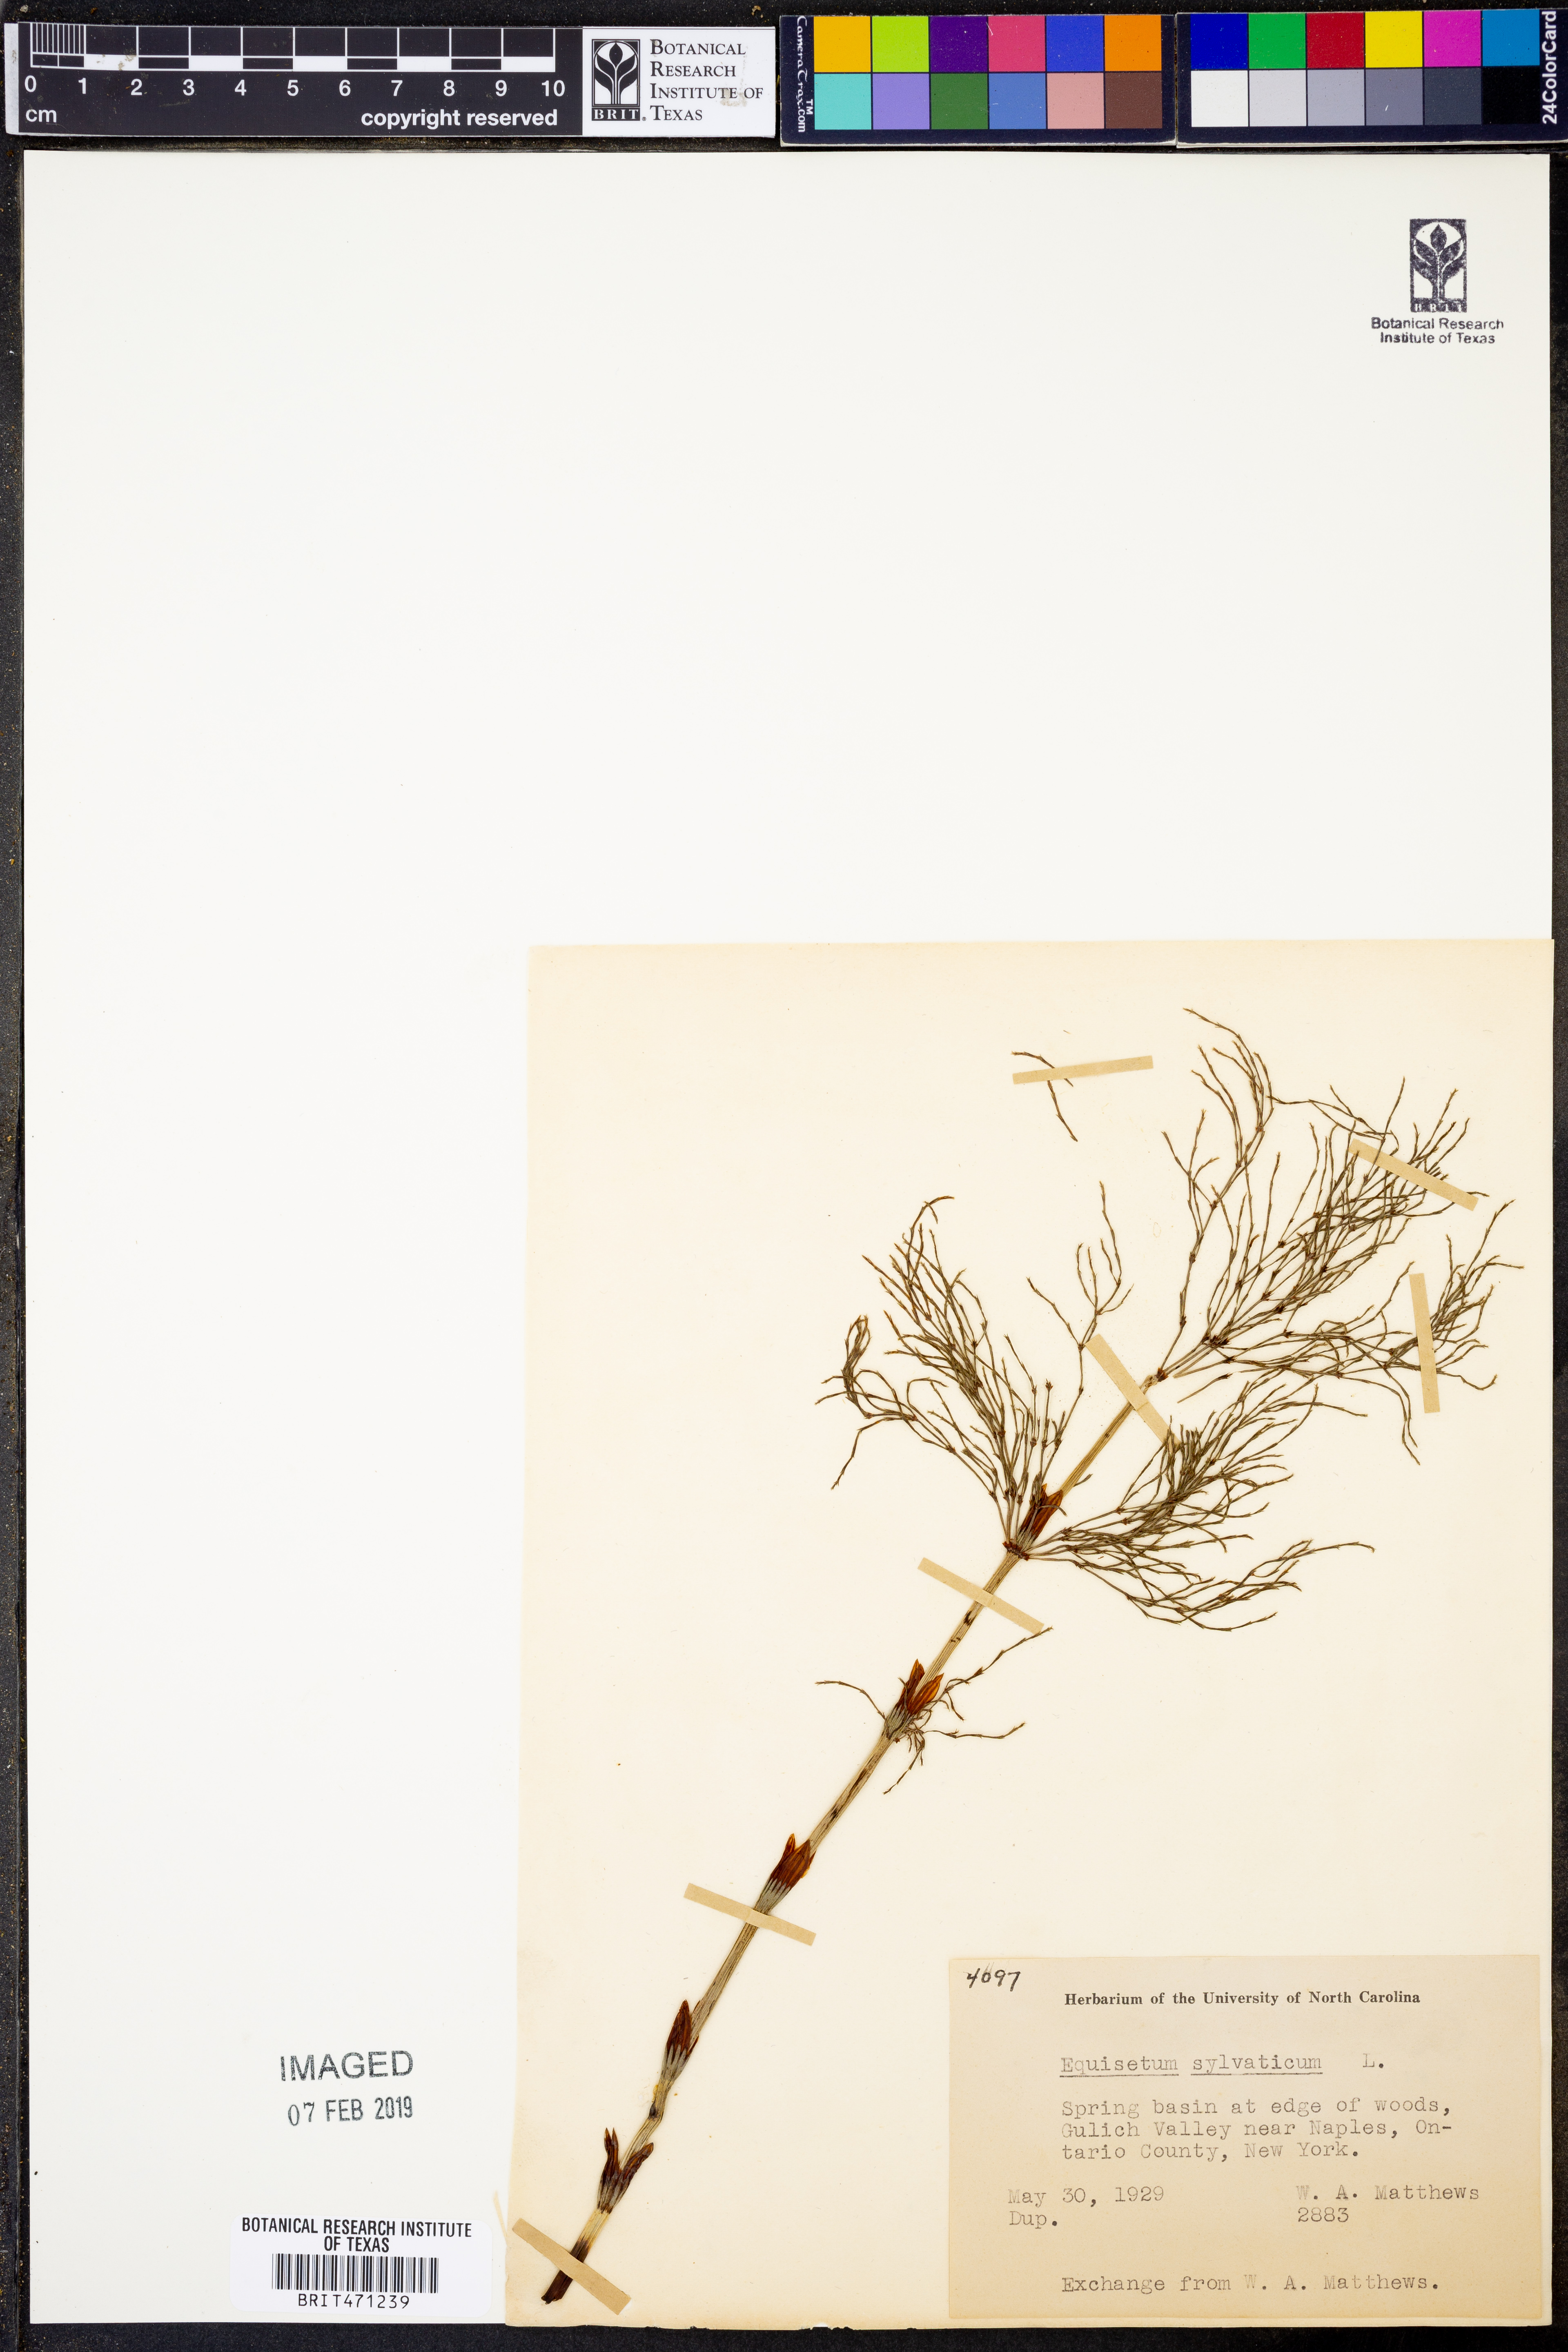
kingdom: Plantae
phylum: Tracheophyta
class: Polypodiopsida
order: Equisetales
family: Equisetaceae
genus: Equisetum
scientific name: Equisetum sylvaticum
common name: Wood horsetail
